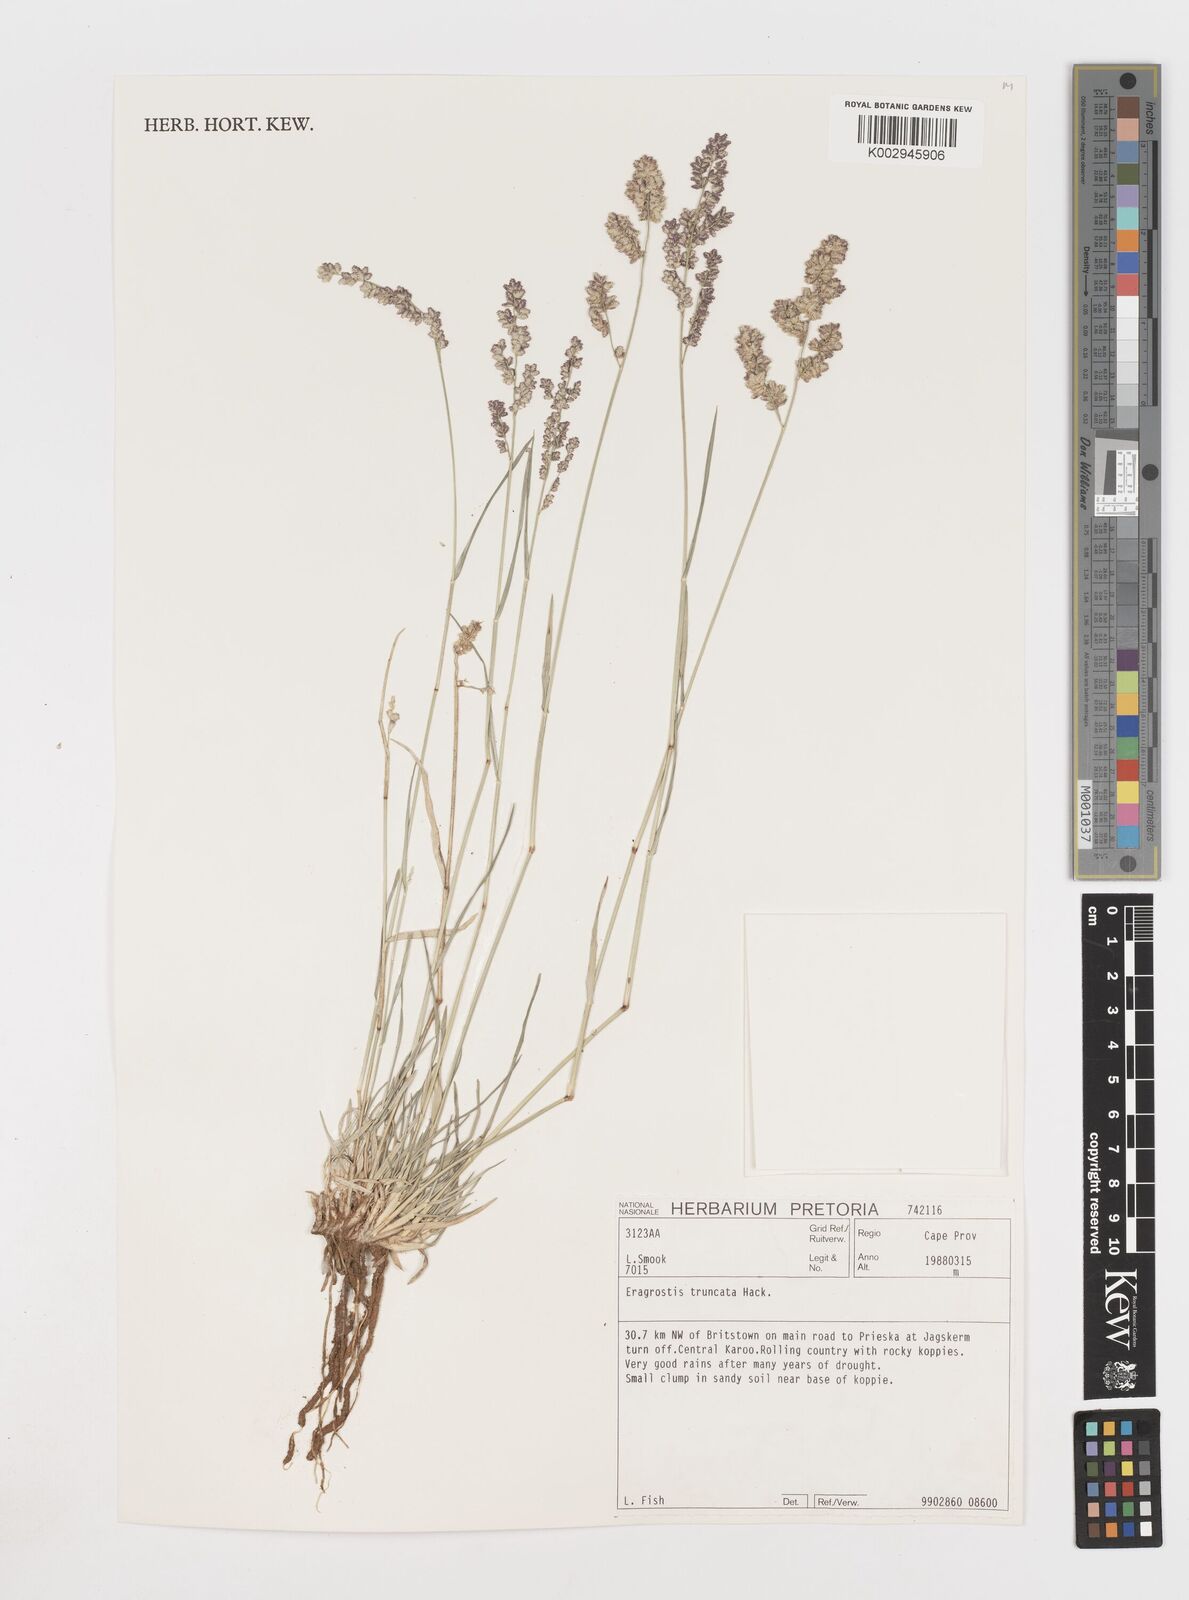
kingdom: Plantae
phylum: Tracheophyta
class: Liliopsida
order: Poales
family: Poaceae
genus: Eragrostis
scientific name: Eragrostis truncata
